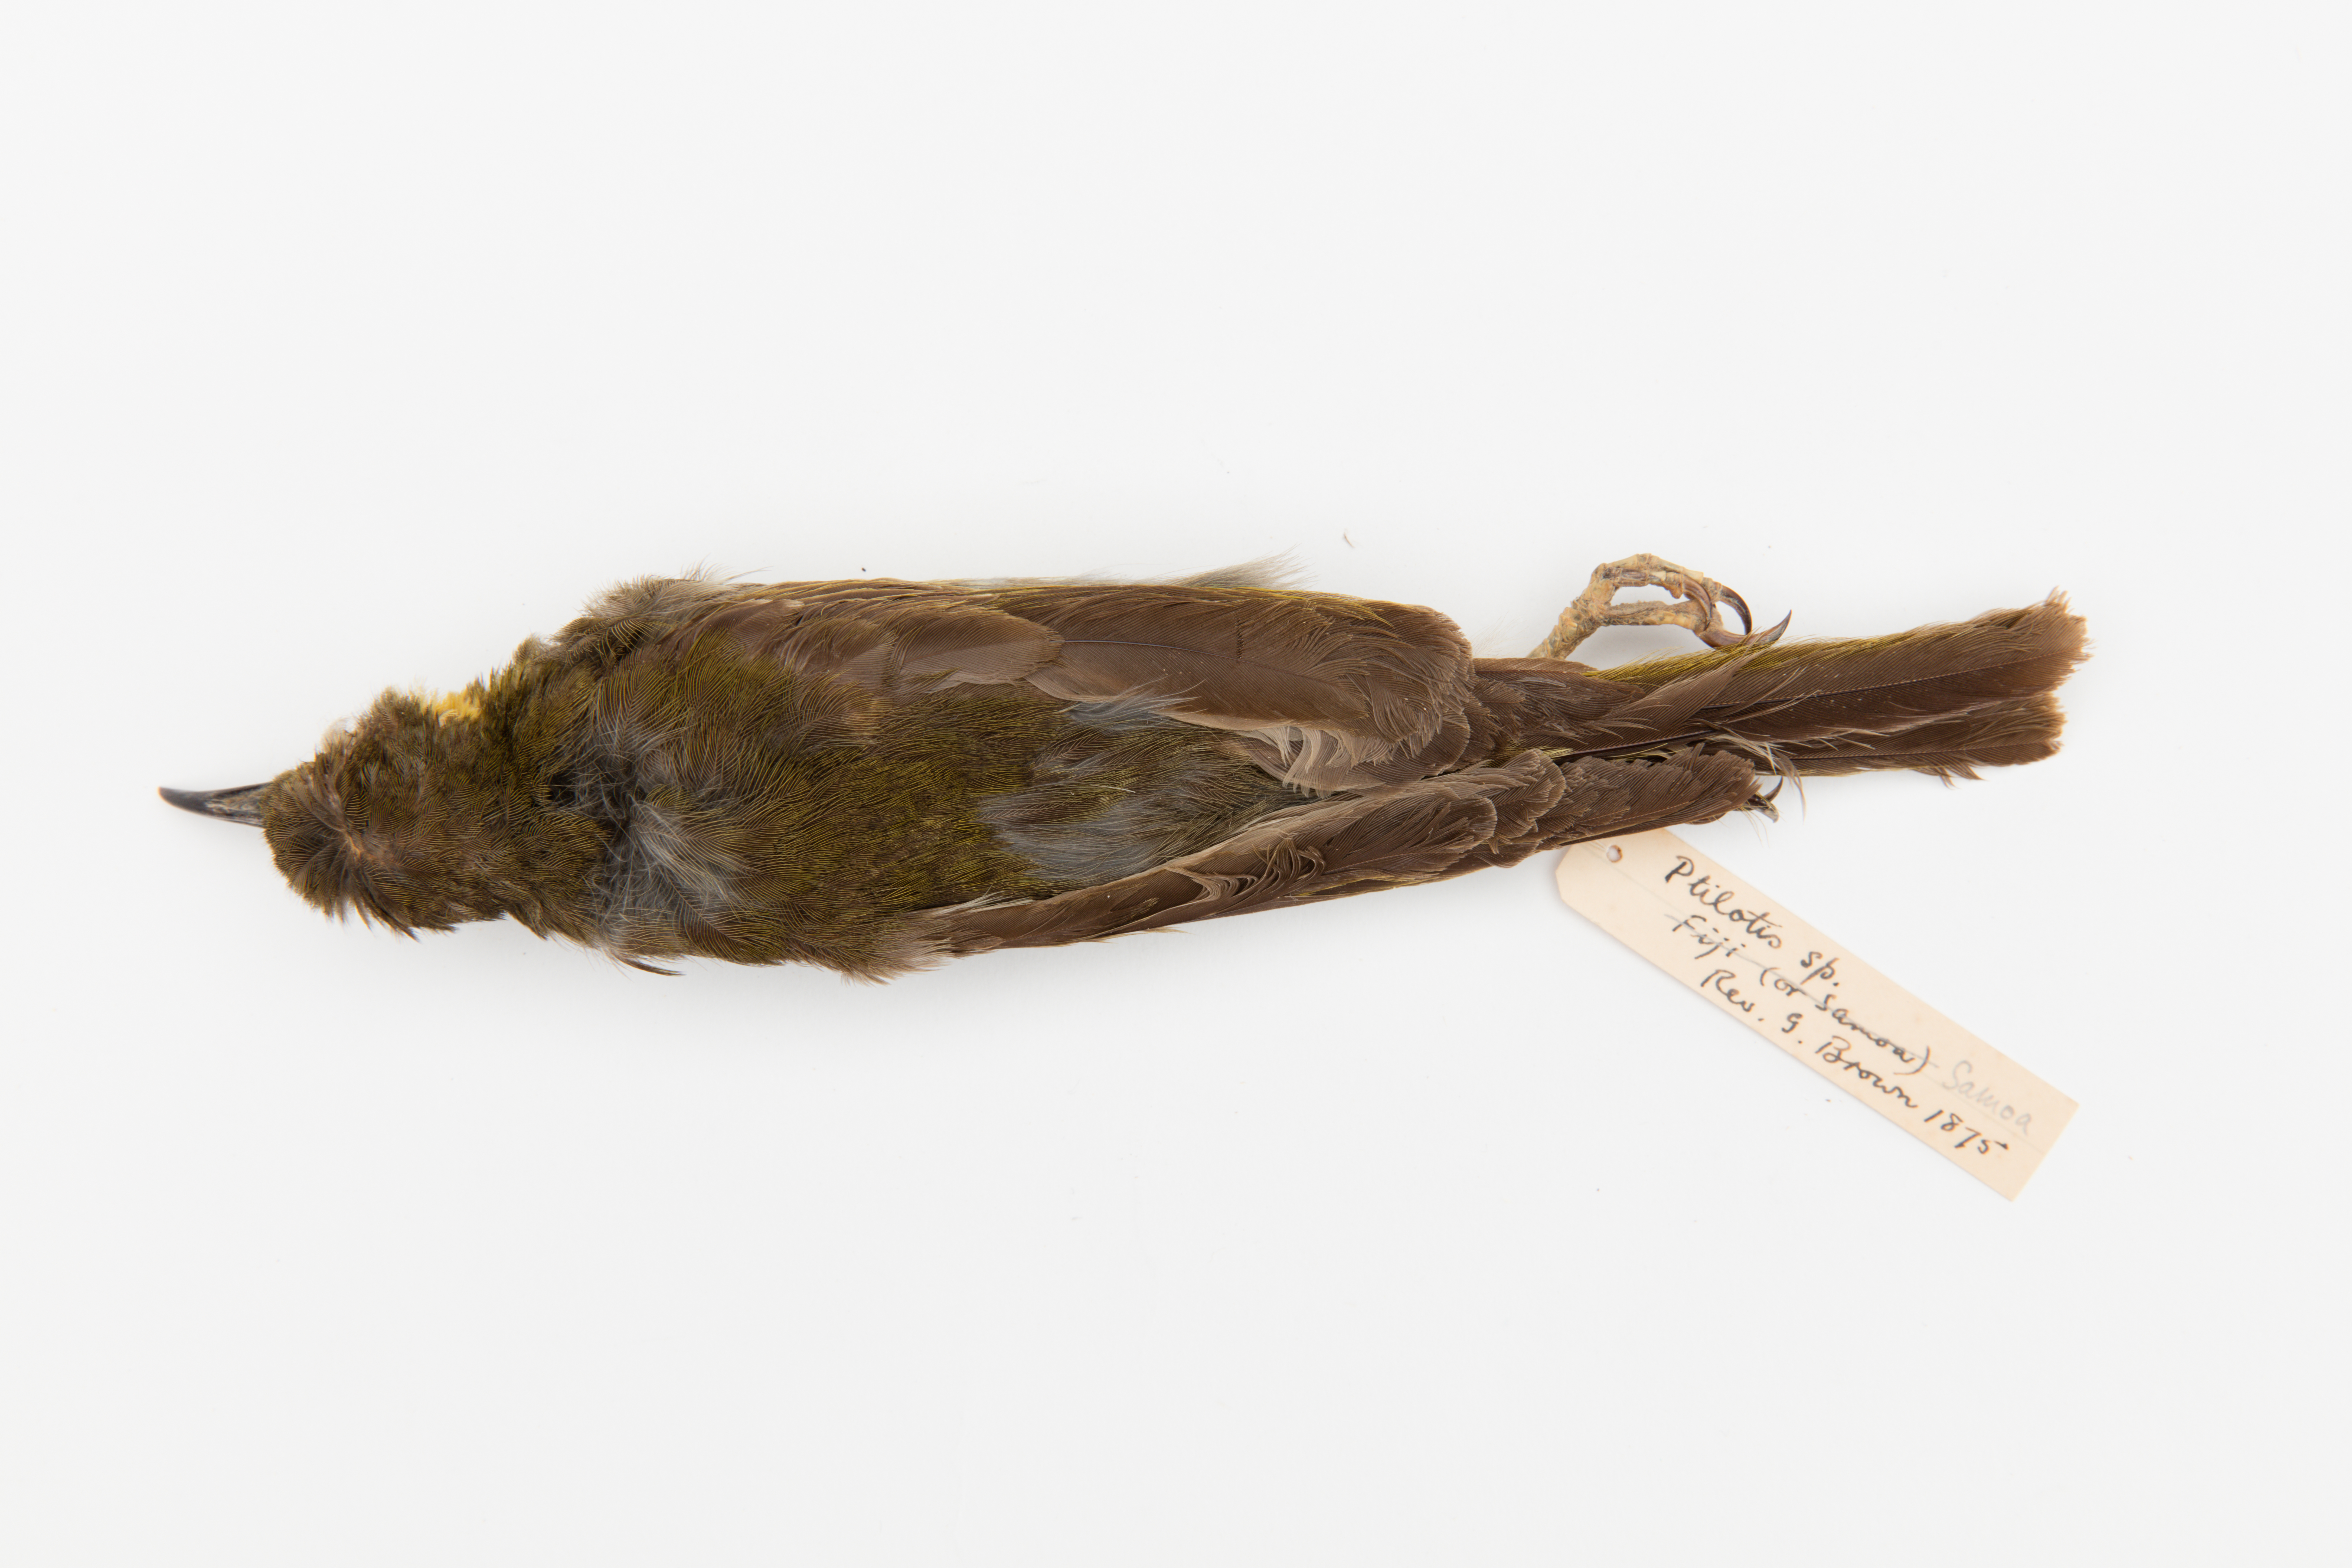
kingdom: Animalia
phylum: Chordata
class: Aves
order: Passeriformes
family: Meliphagidae
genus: Foulehaio
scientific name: Foulehaio carunculatus
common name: Eastern wattled-honeyeater
